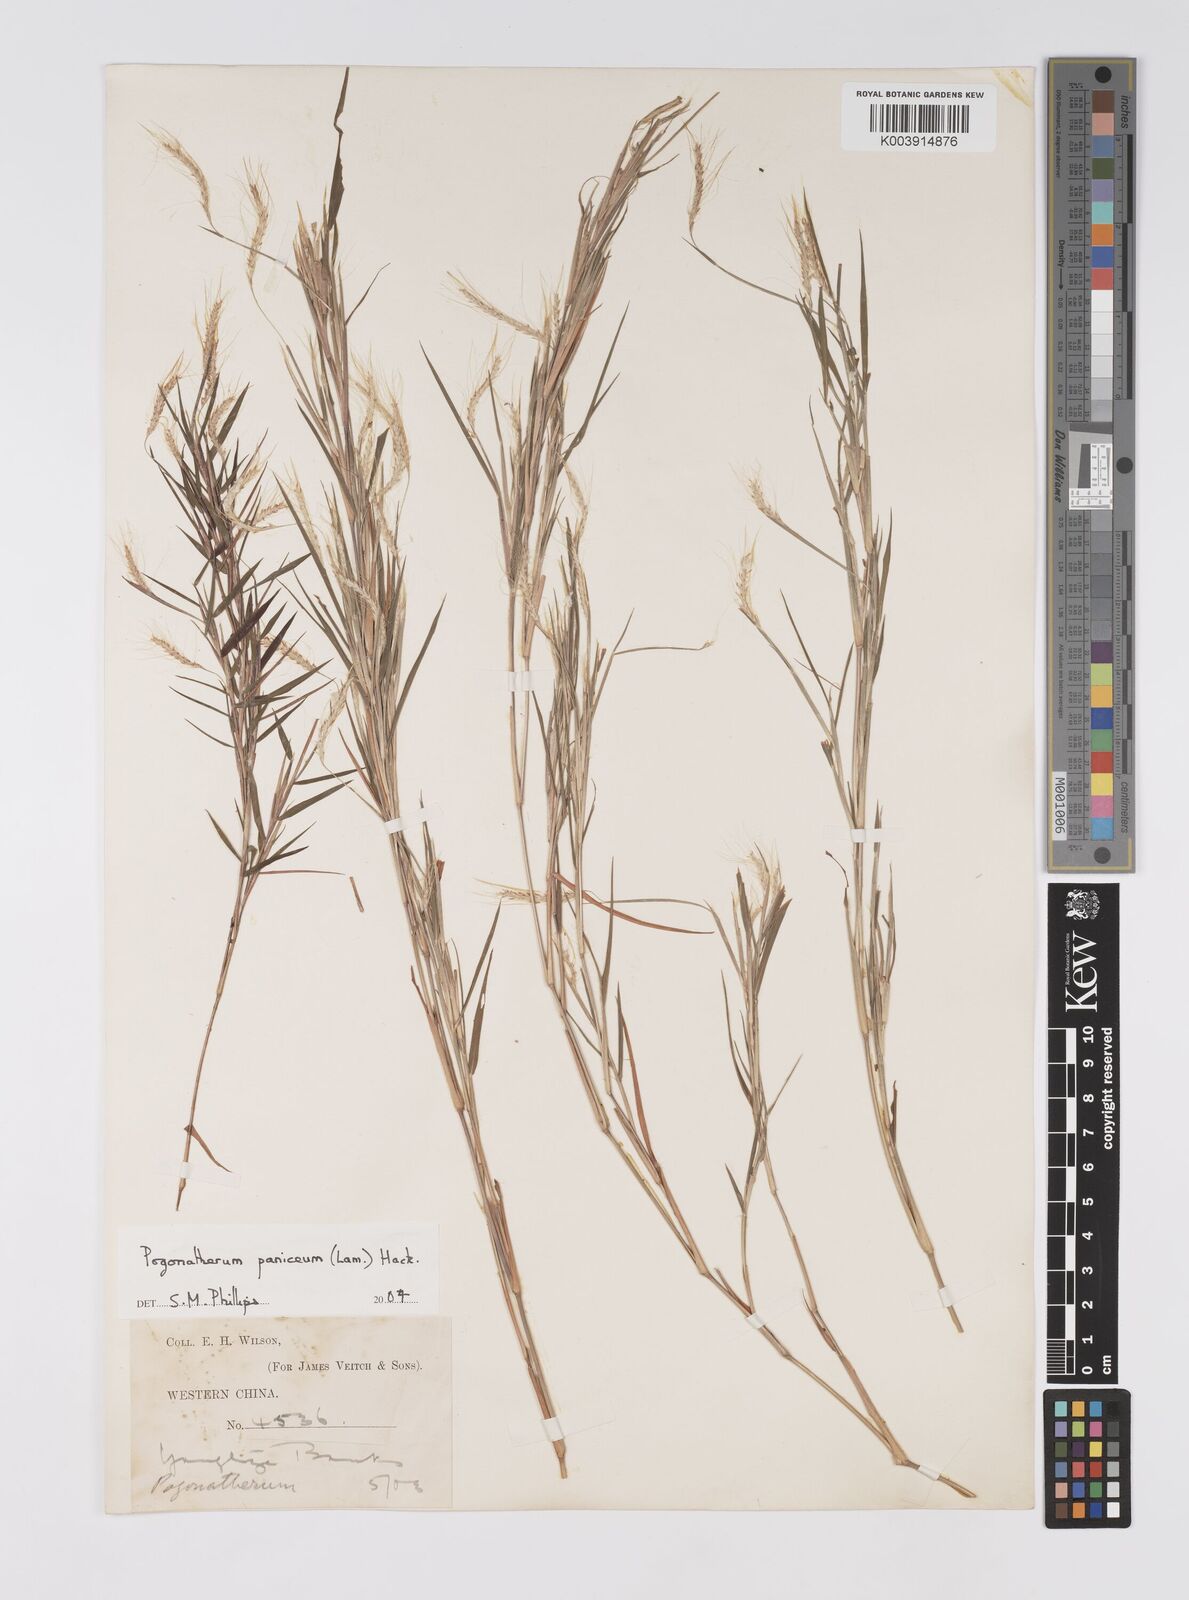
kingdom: Plantae
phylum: Tracheophyta
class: Liliopsida
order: Poales
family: Poaceae
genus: Pogonatherum
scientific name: Pogonatherum paniceum
